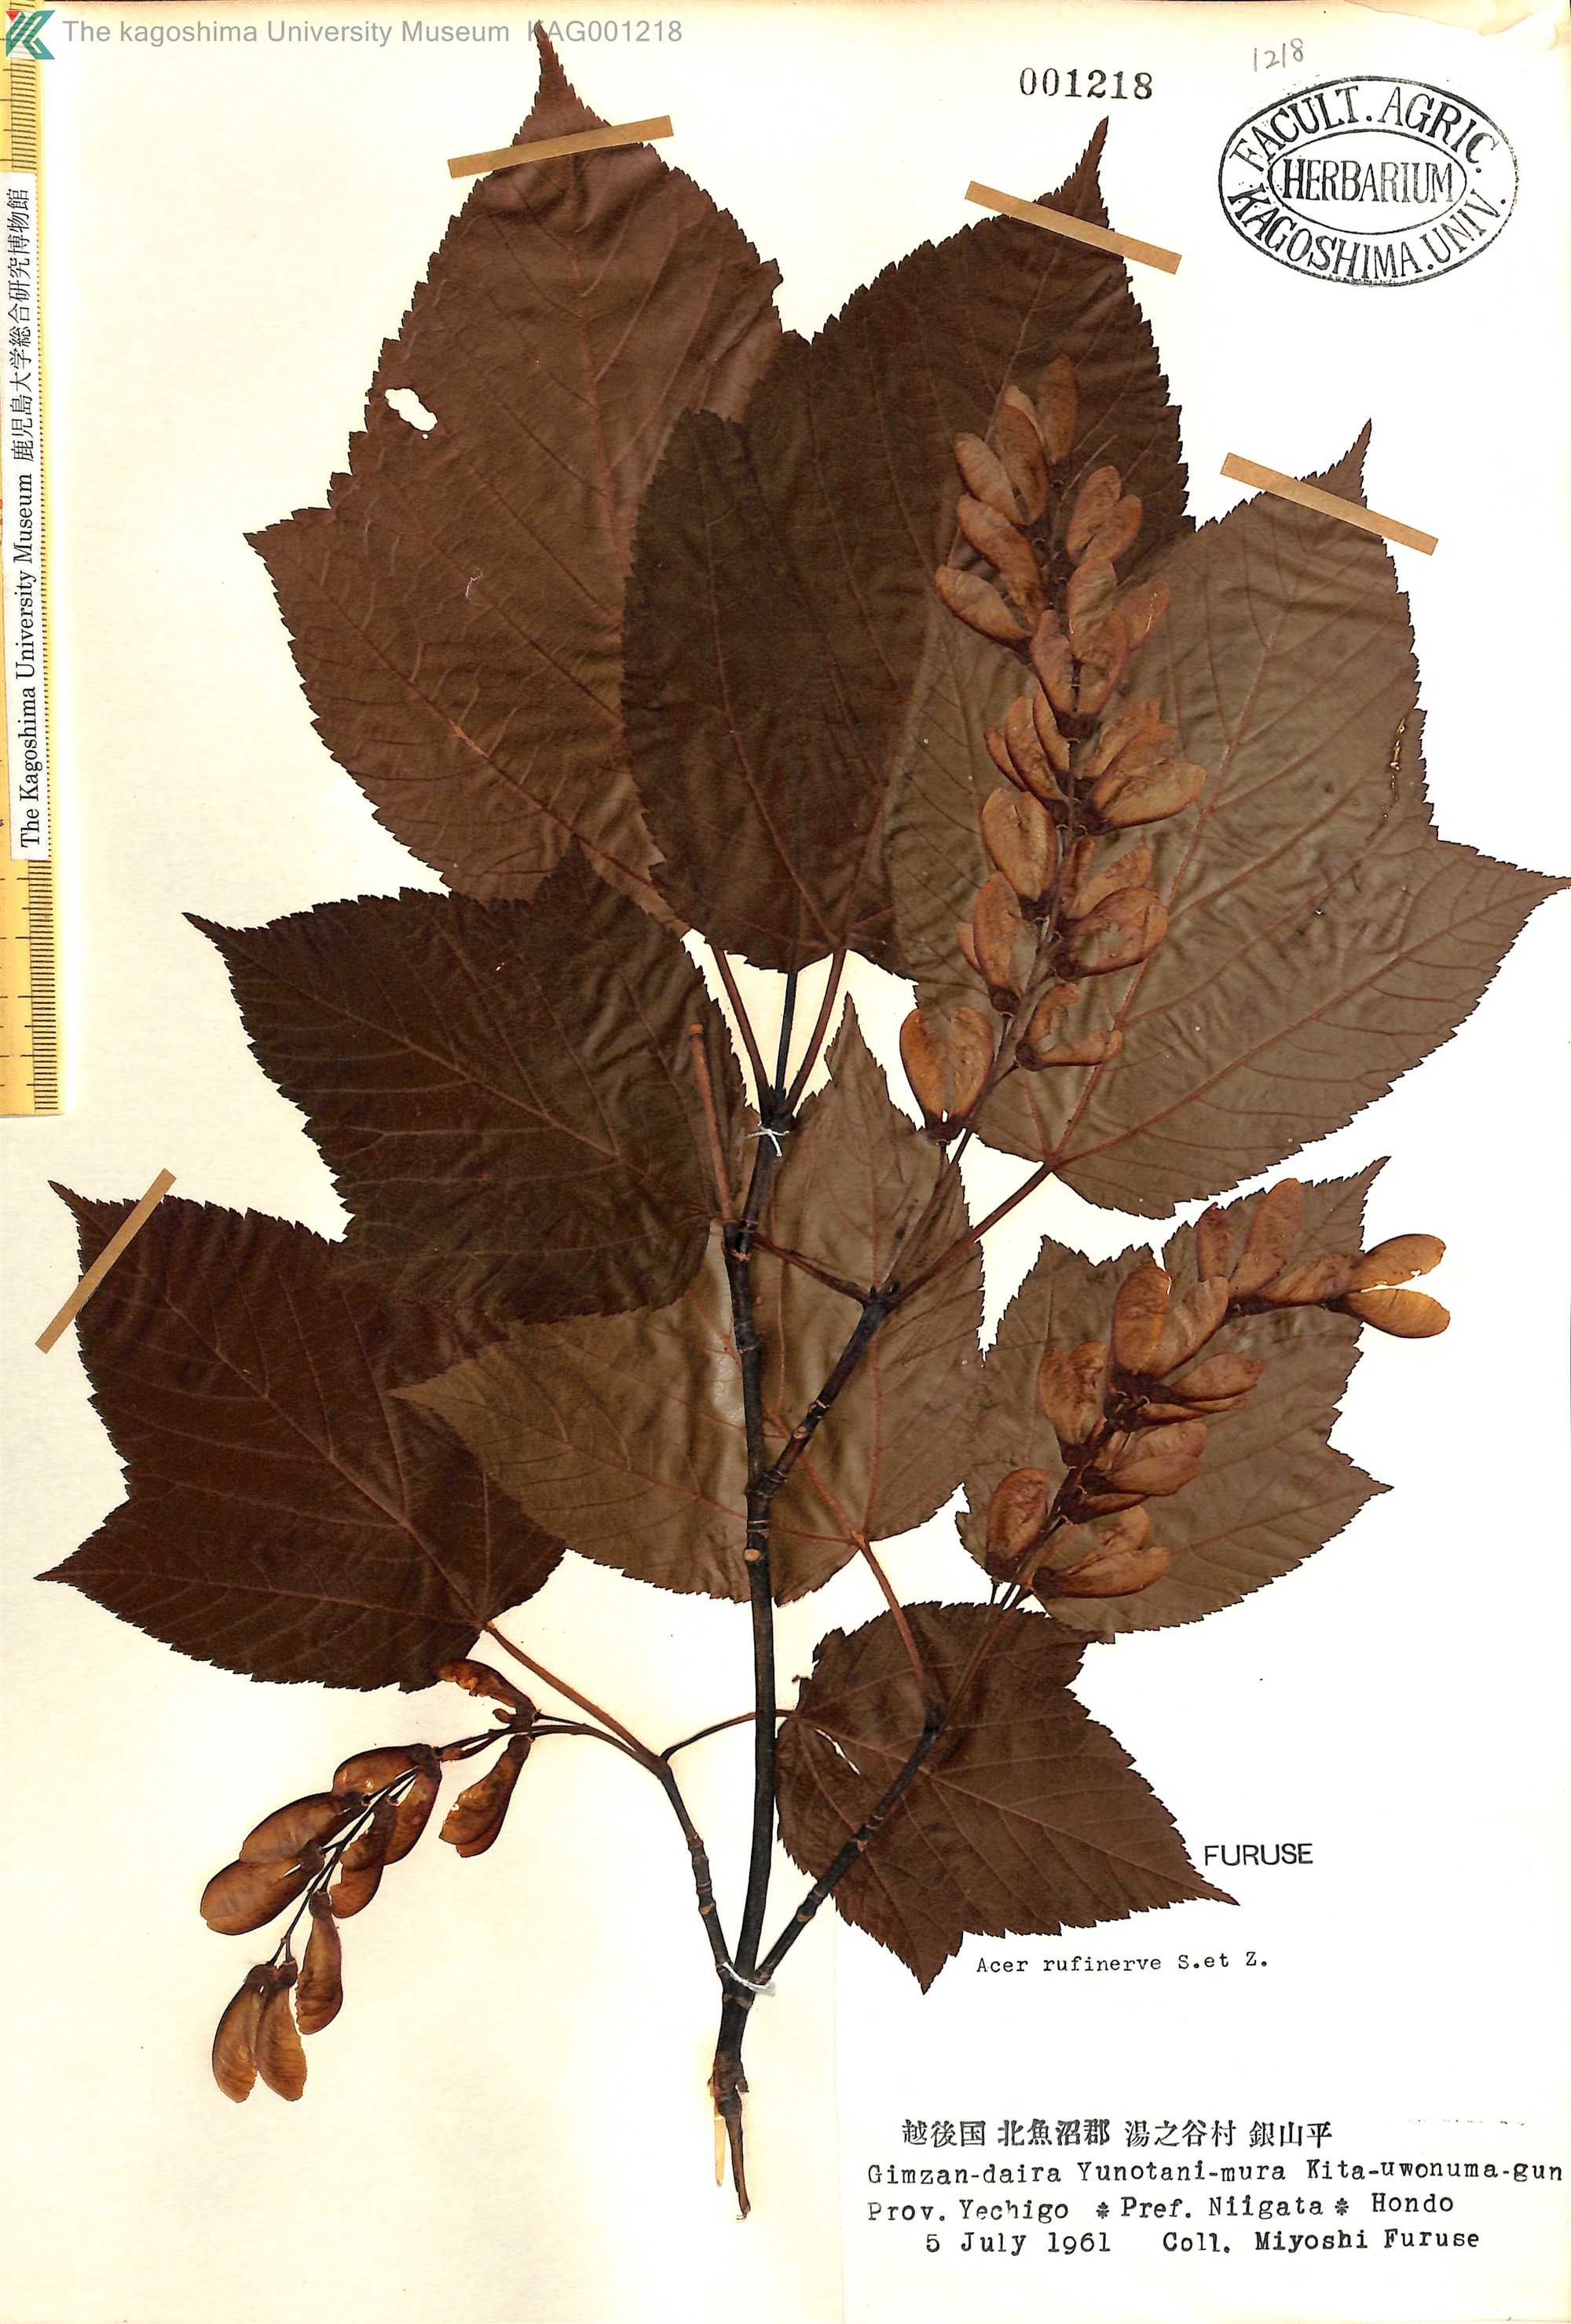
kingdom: Plantae
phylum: Tracheophyta
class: Magnoliopsida
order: Sapindales
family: Sapindaceae
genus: Acer
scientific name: Acer rufinerve
